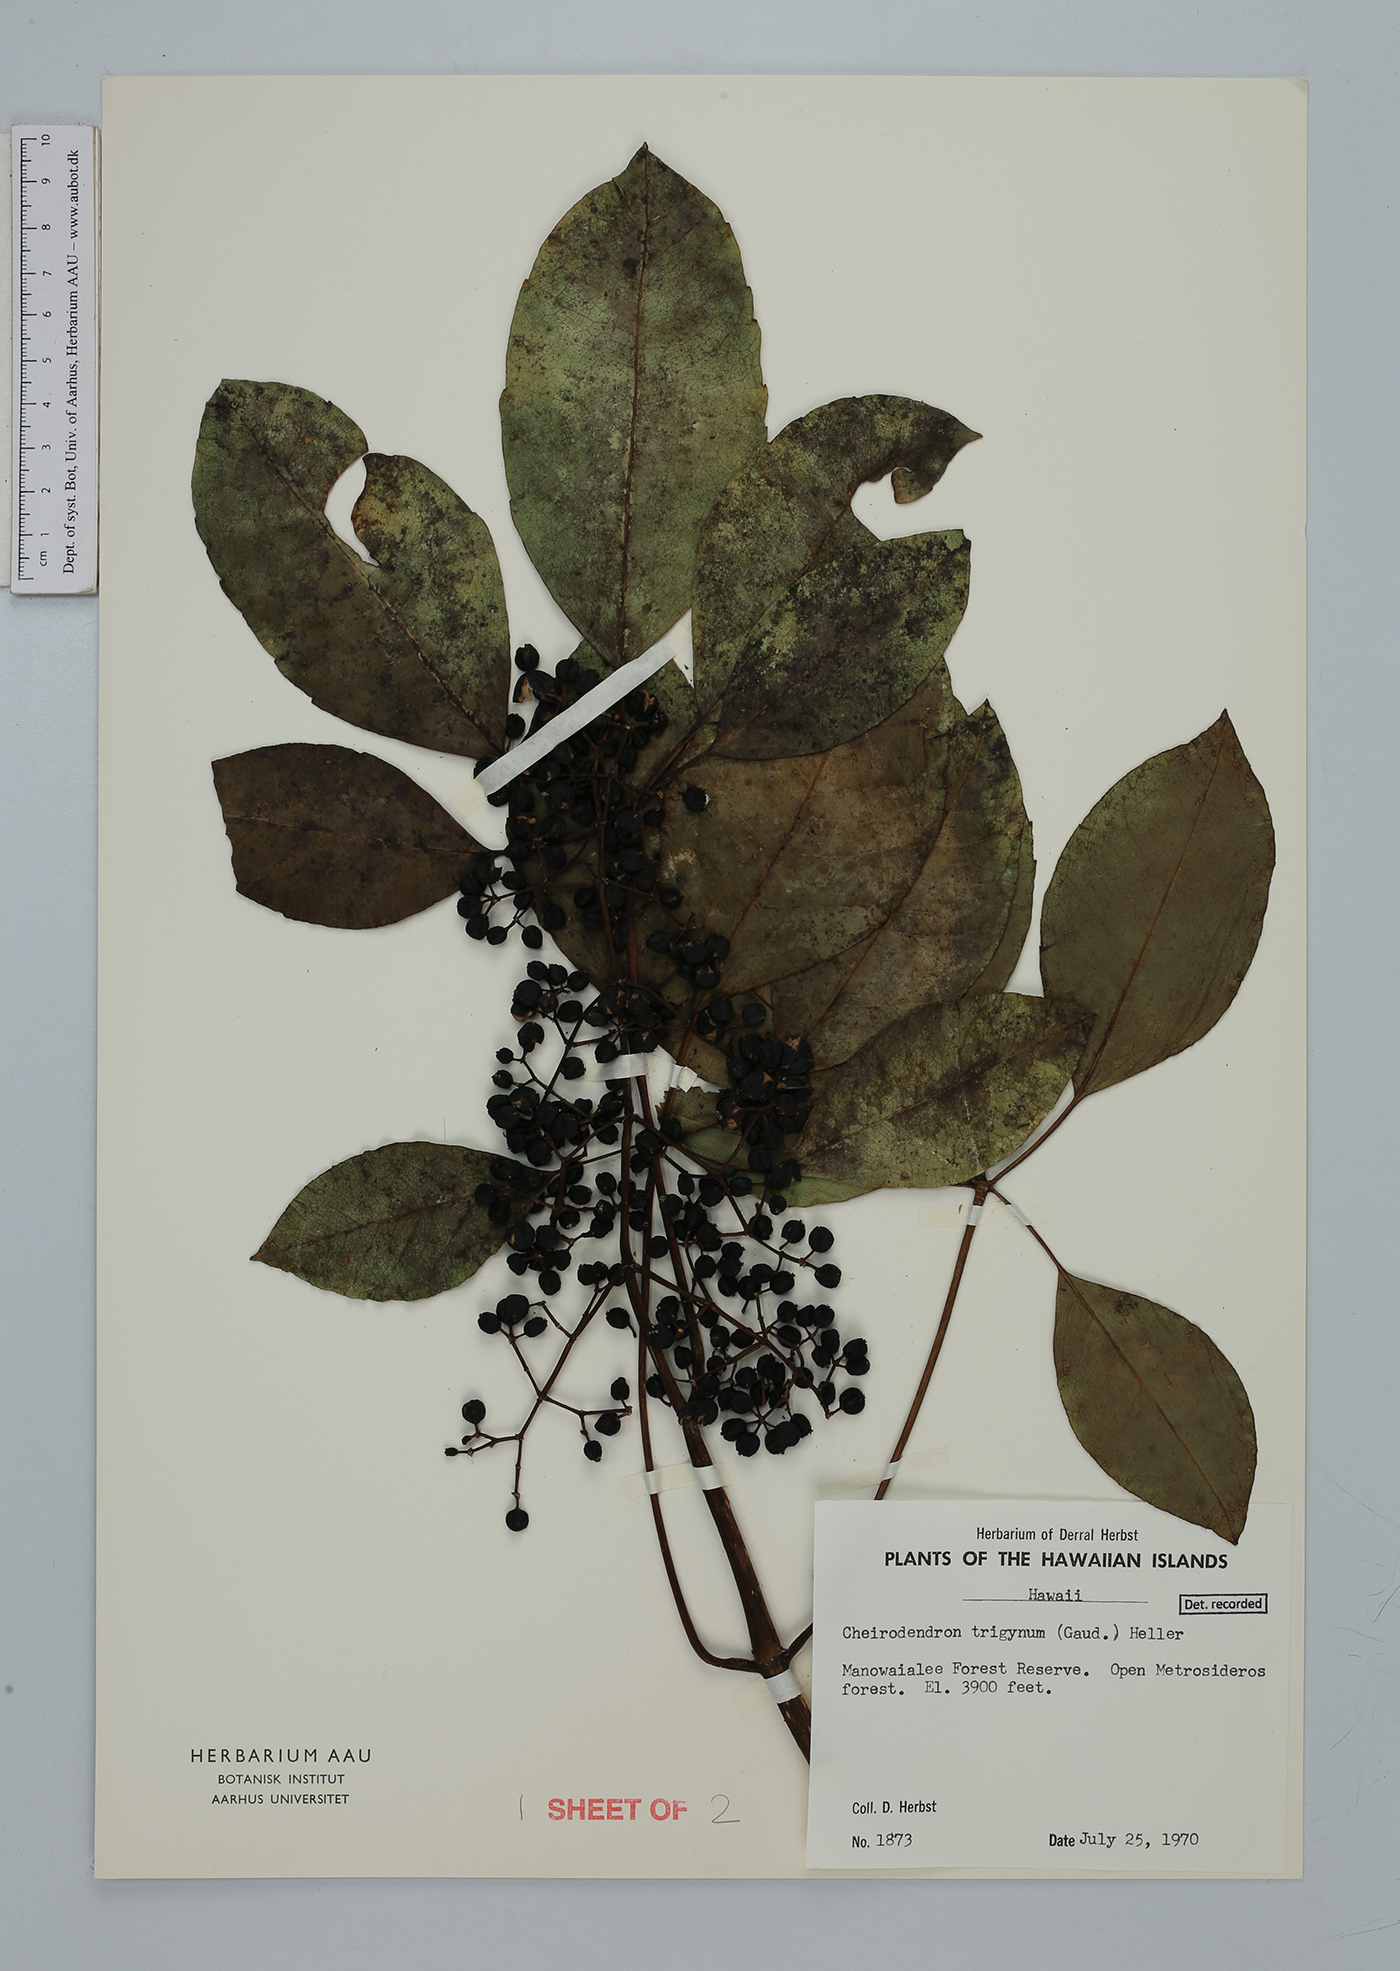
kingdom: Plantae
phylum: Tracheophyta
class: Magnoliopsida
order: Apiales
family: Araliaceae
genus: Cheirodendron
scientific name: Cheirodendron trigynum
